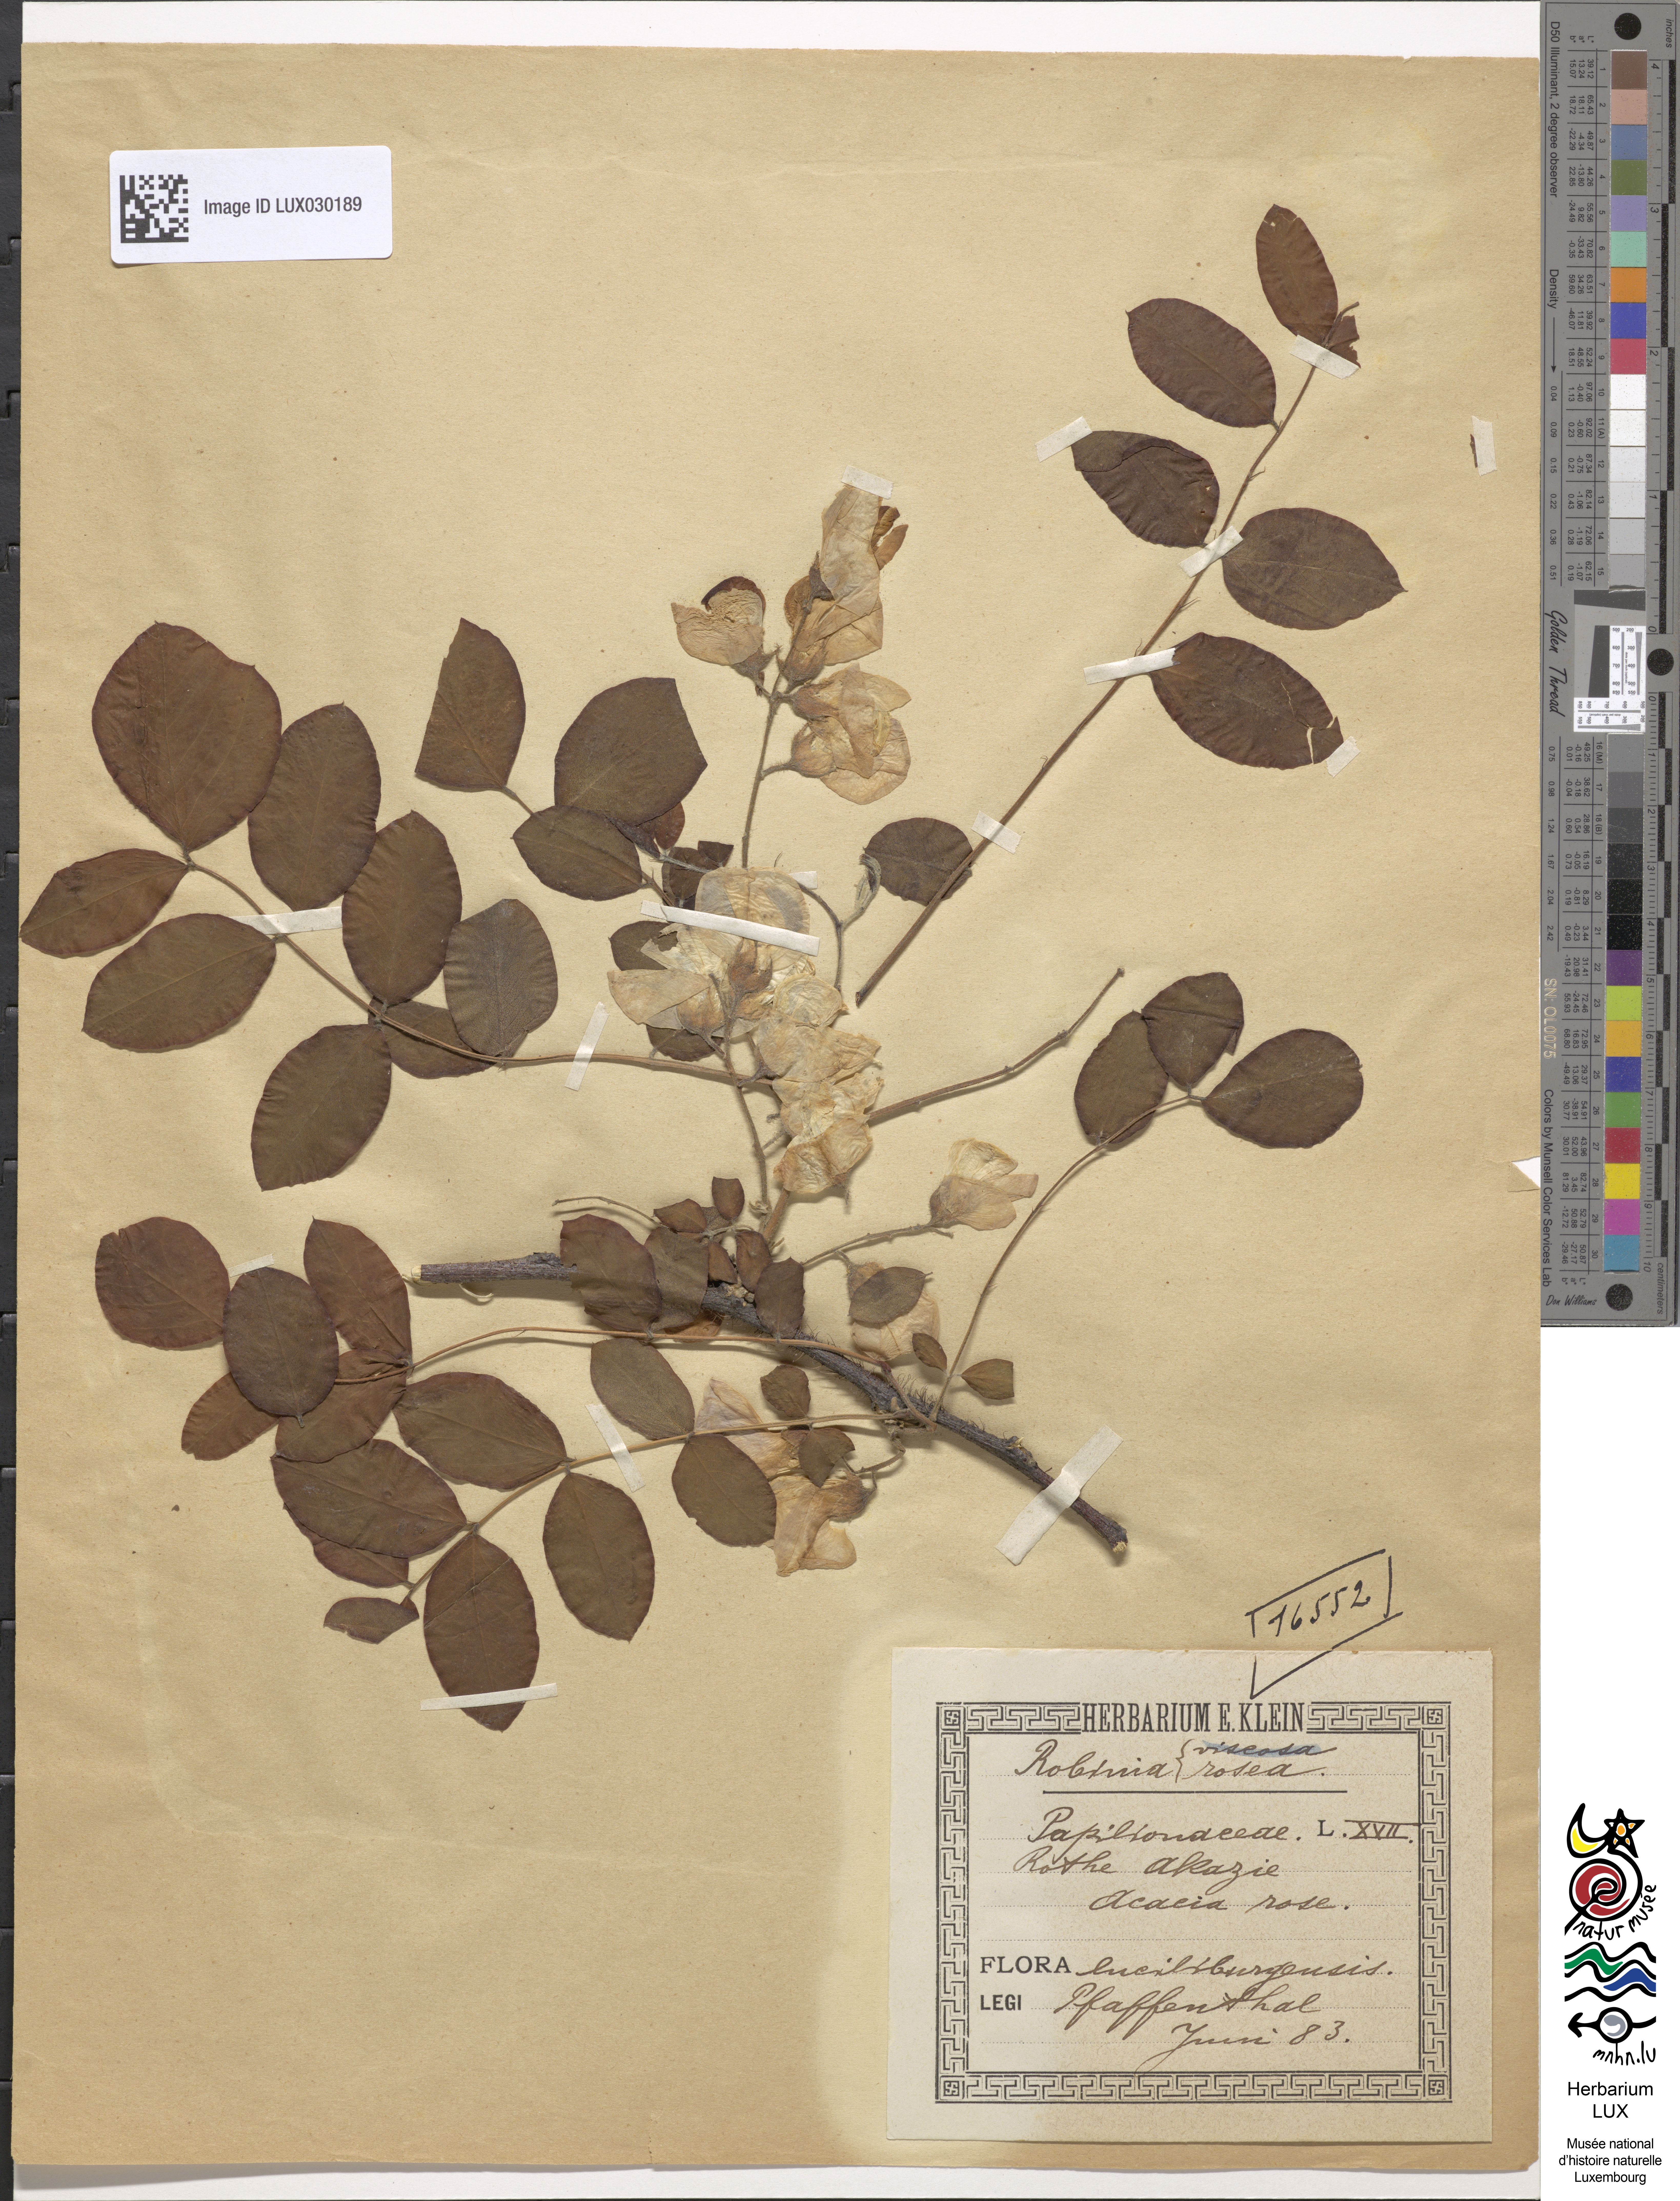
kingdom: Plantae
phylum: Tracheophyta
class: Magnoliopsida
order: Fabales
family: Fabaceae
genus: Robinia
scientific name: Robinia hispida
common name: Bristly locust
